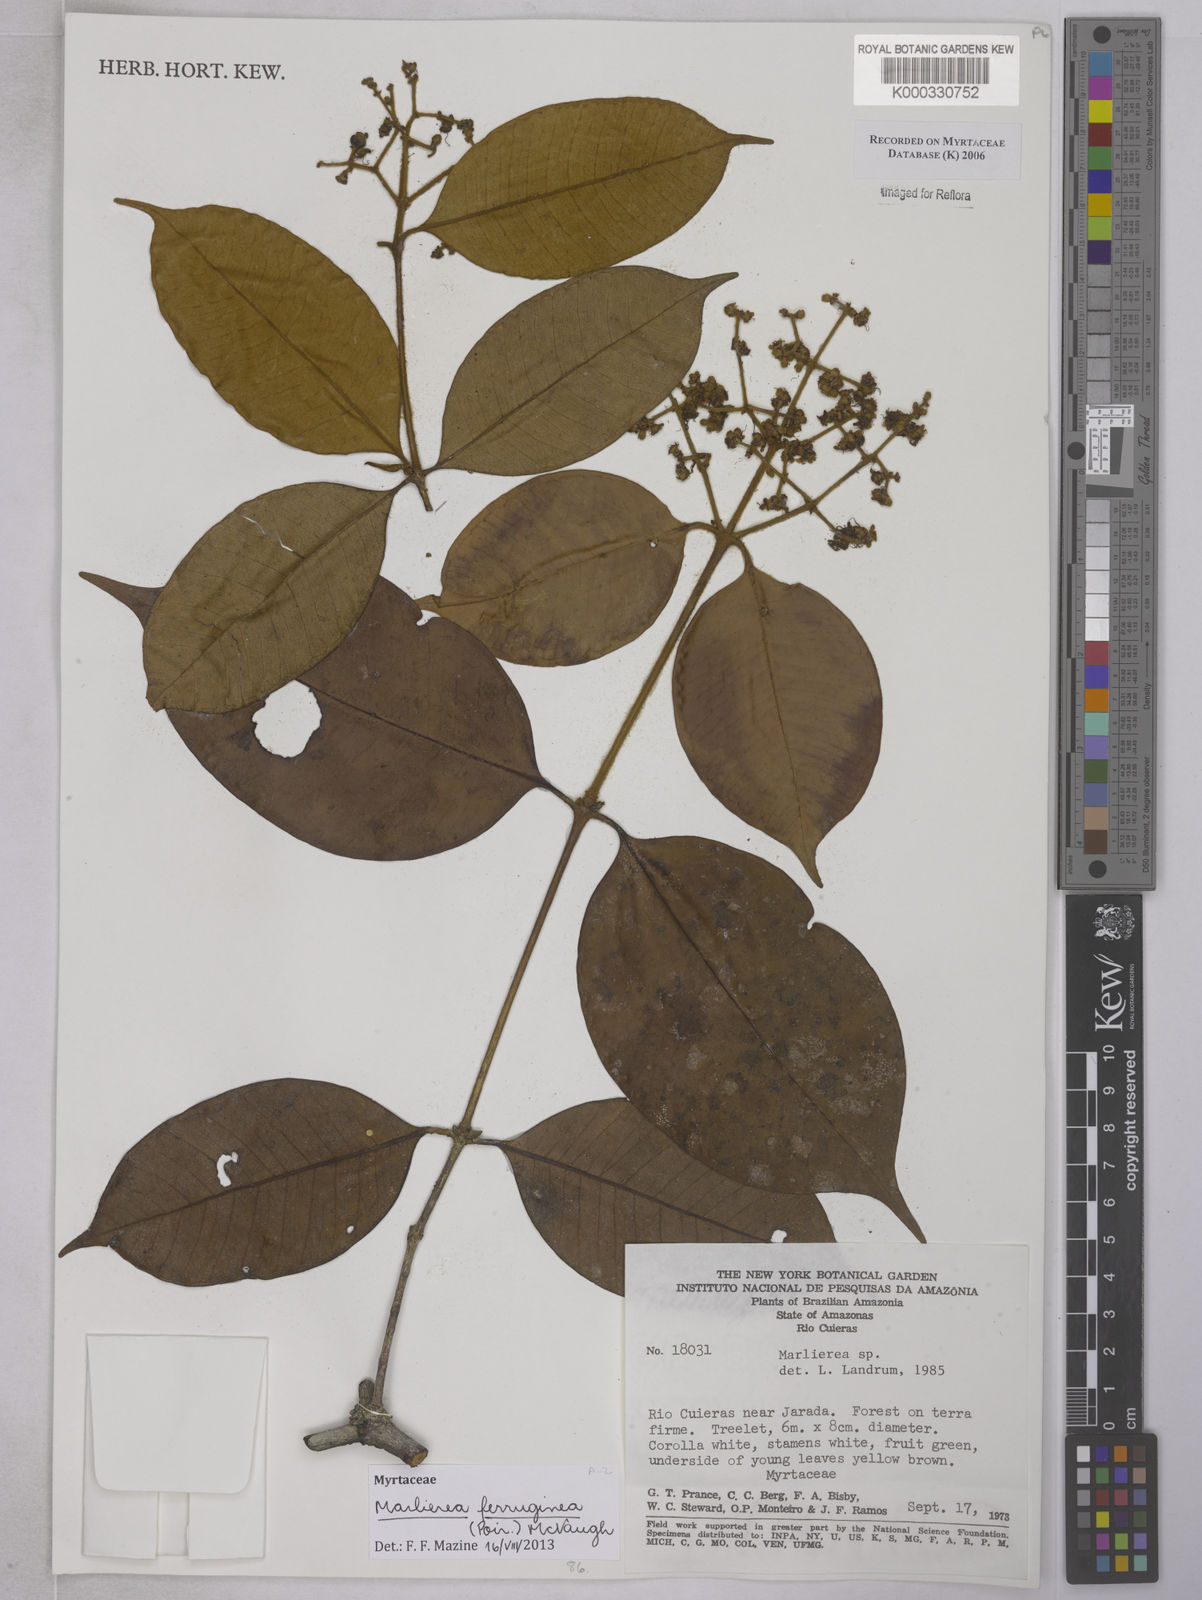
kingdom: Plantae
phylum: Tracheophyta
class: Magnoliopsida
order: Myrtales
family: Myrtaceae
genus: Myrcia
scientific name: Myrcia ferruginea
